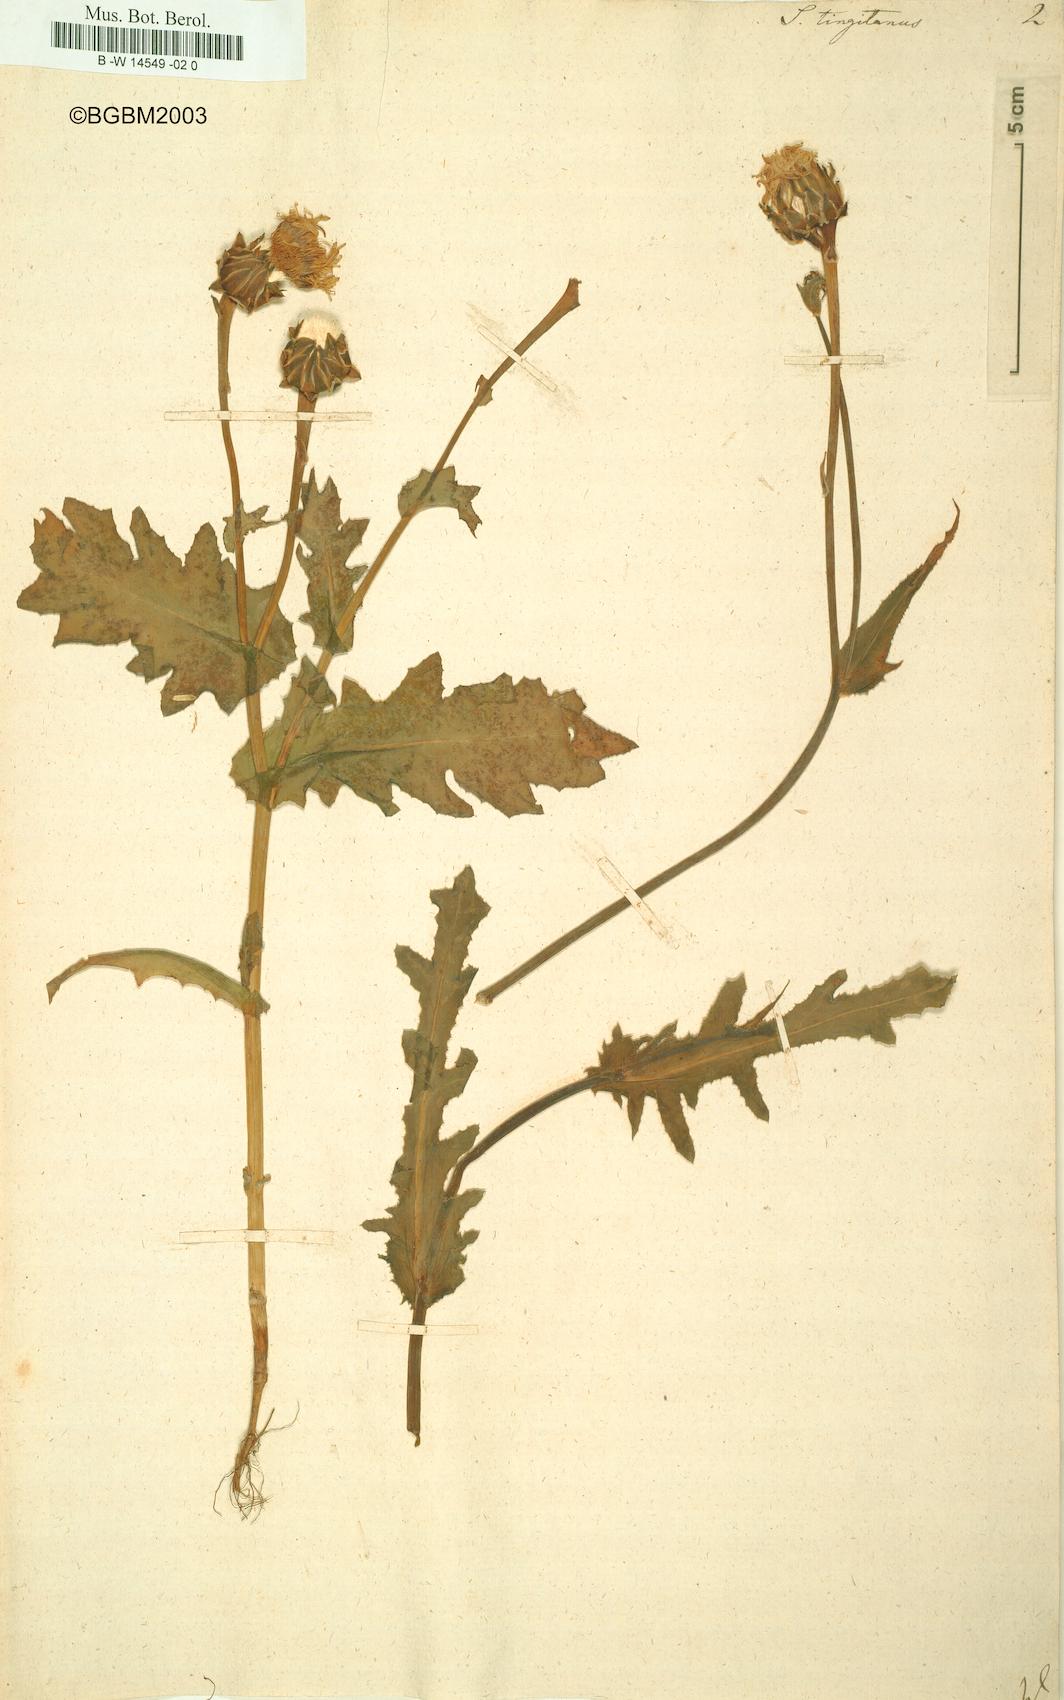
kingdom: Plantae
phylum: Tracheophyta
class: Magnoliopsida
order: Asterales
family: Asteraceae
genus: Reichardia
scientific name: Reichardia tingitana
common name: Reichardia
